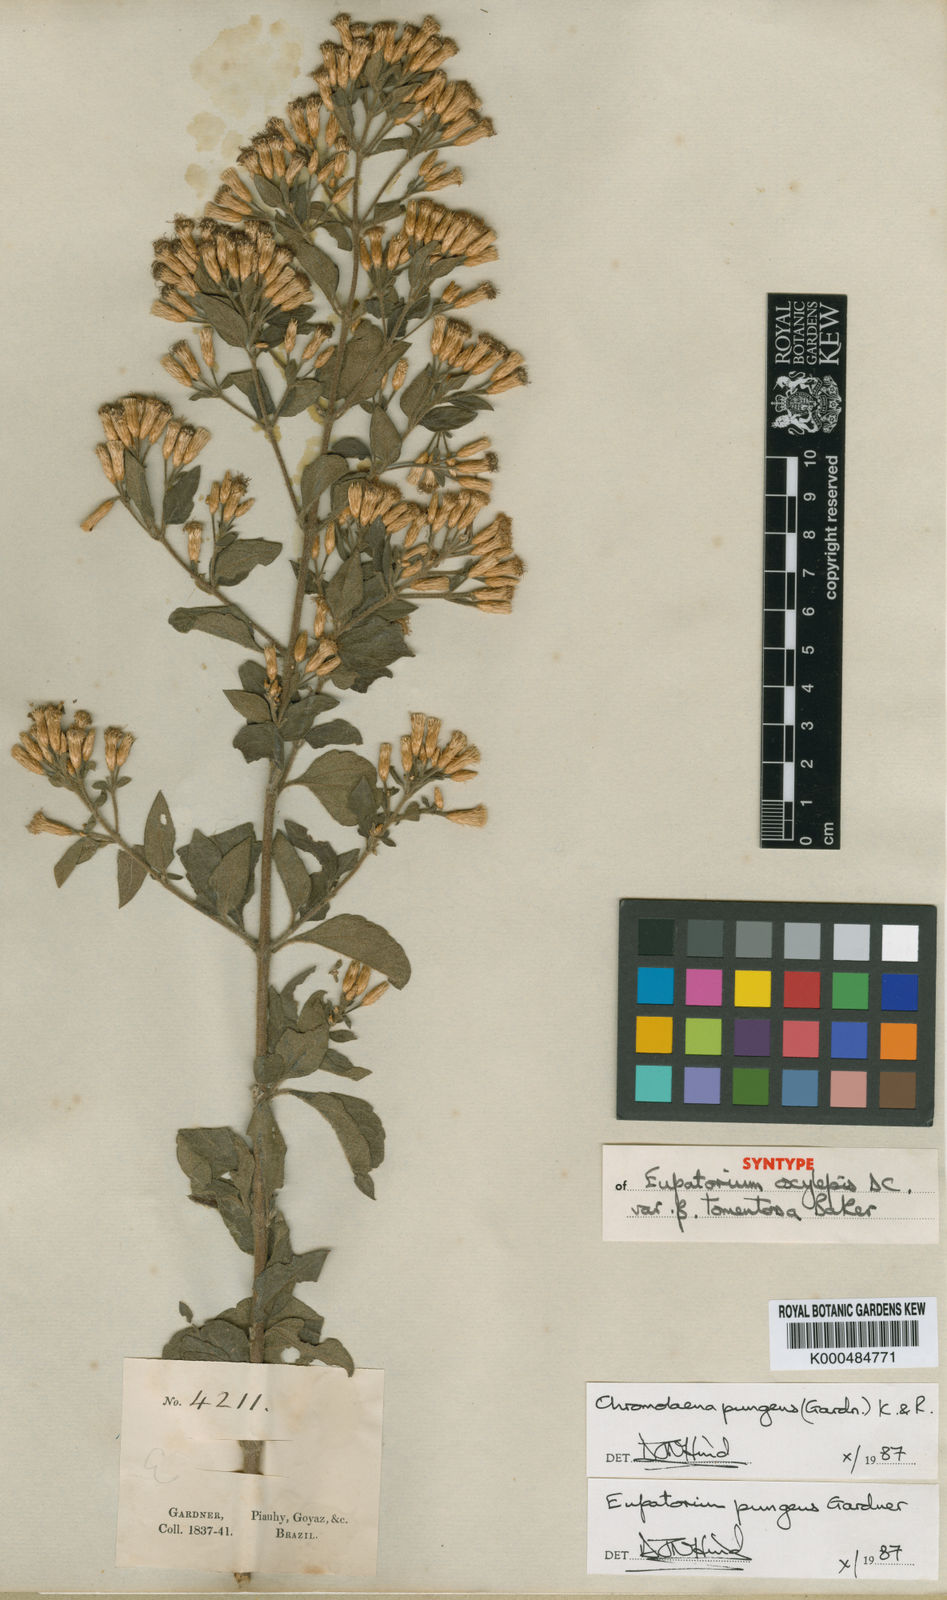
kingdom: Plantae
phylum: Tracheophyta
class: Magnoliopsida
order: Asterales
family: Asteraceae
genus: Chromolaena
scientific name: Chromolaena pungens
